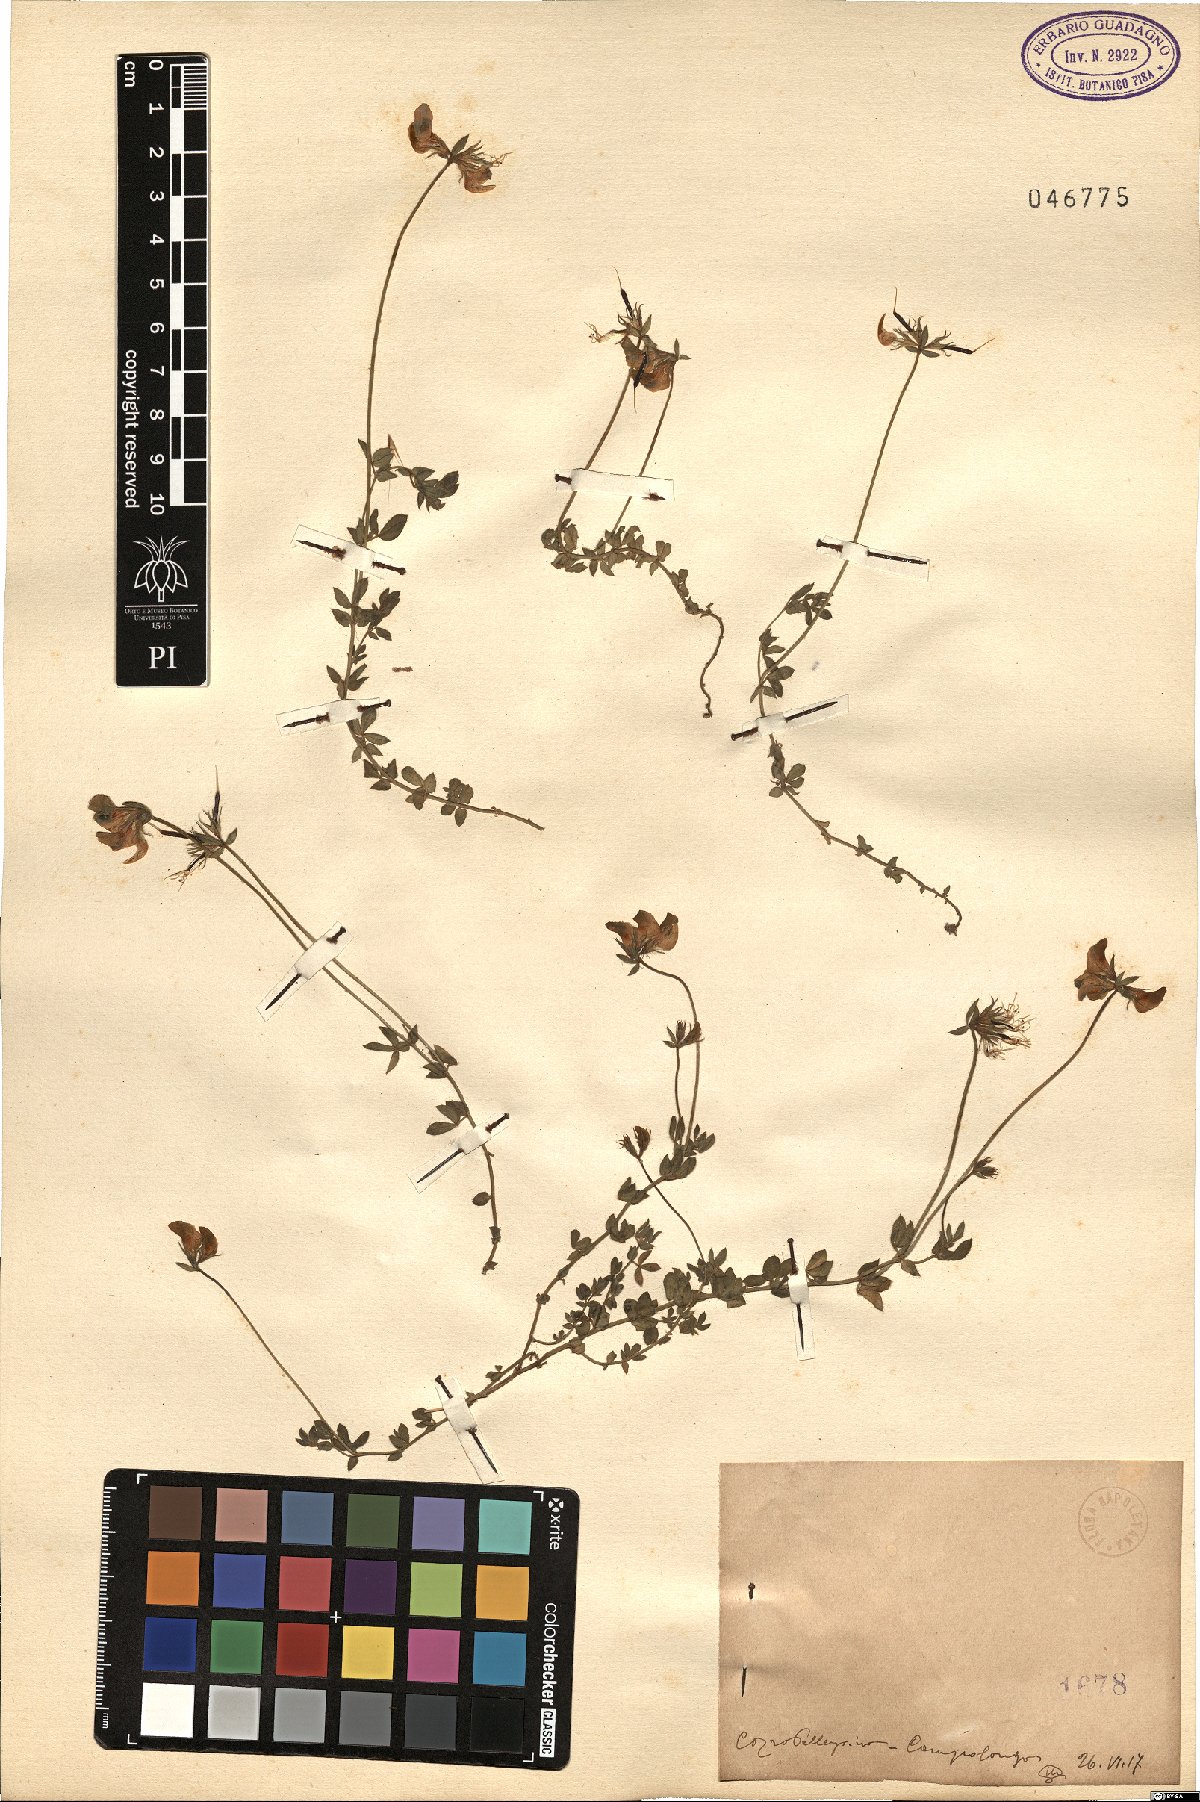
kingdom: Plantae
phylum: Tracheophyta
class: Magnoliopsida
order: Fabales
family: Fabaceae
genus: Lotus
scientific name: Lotus
